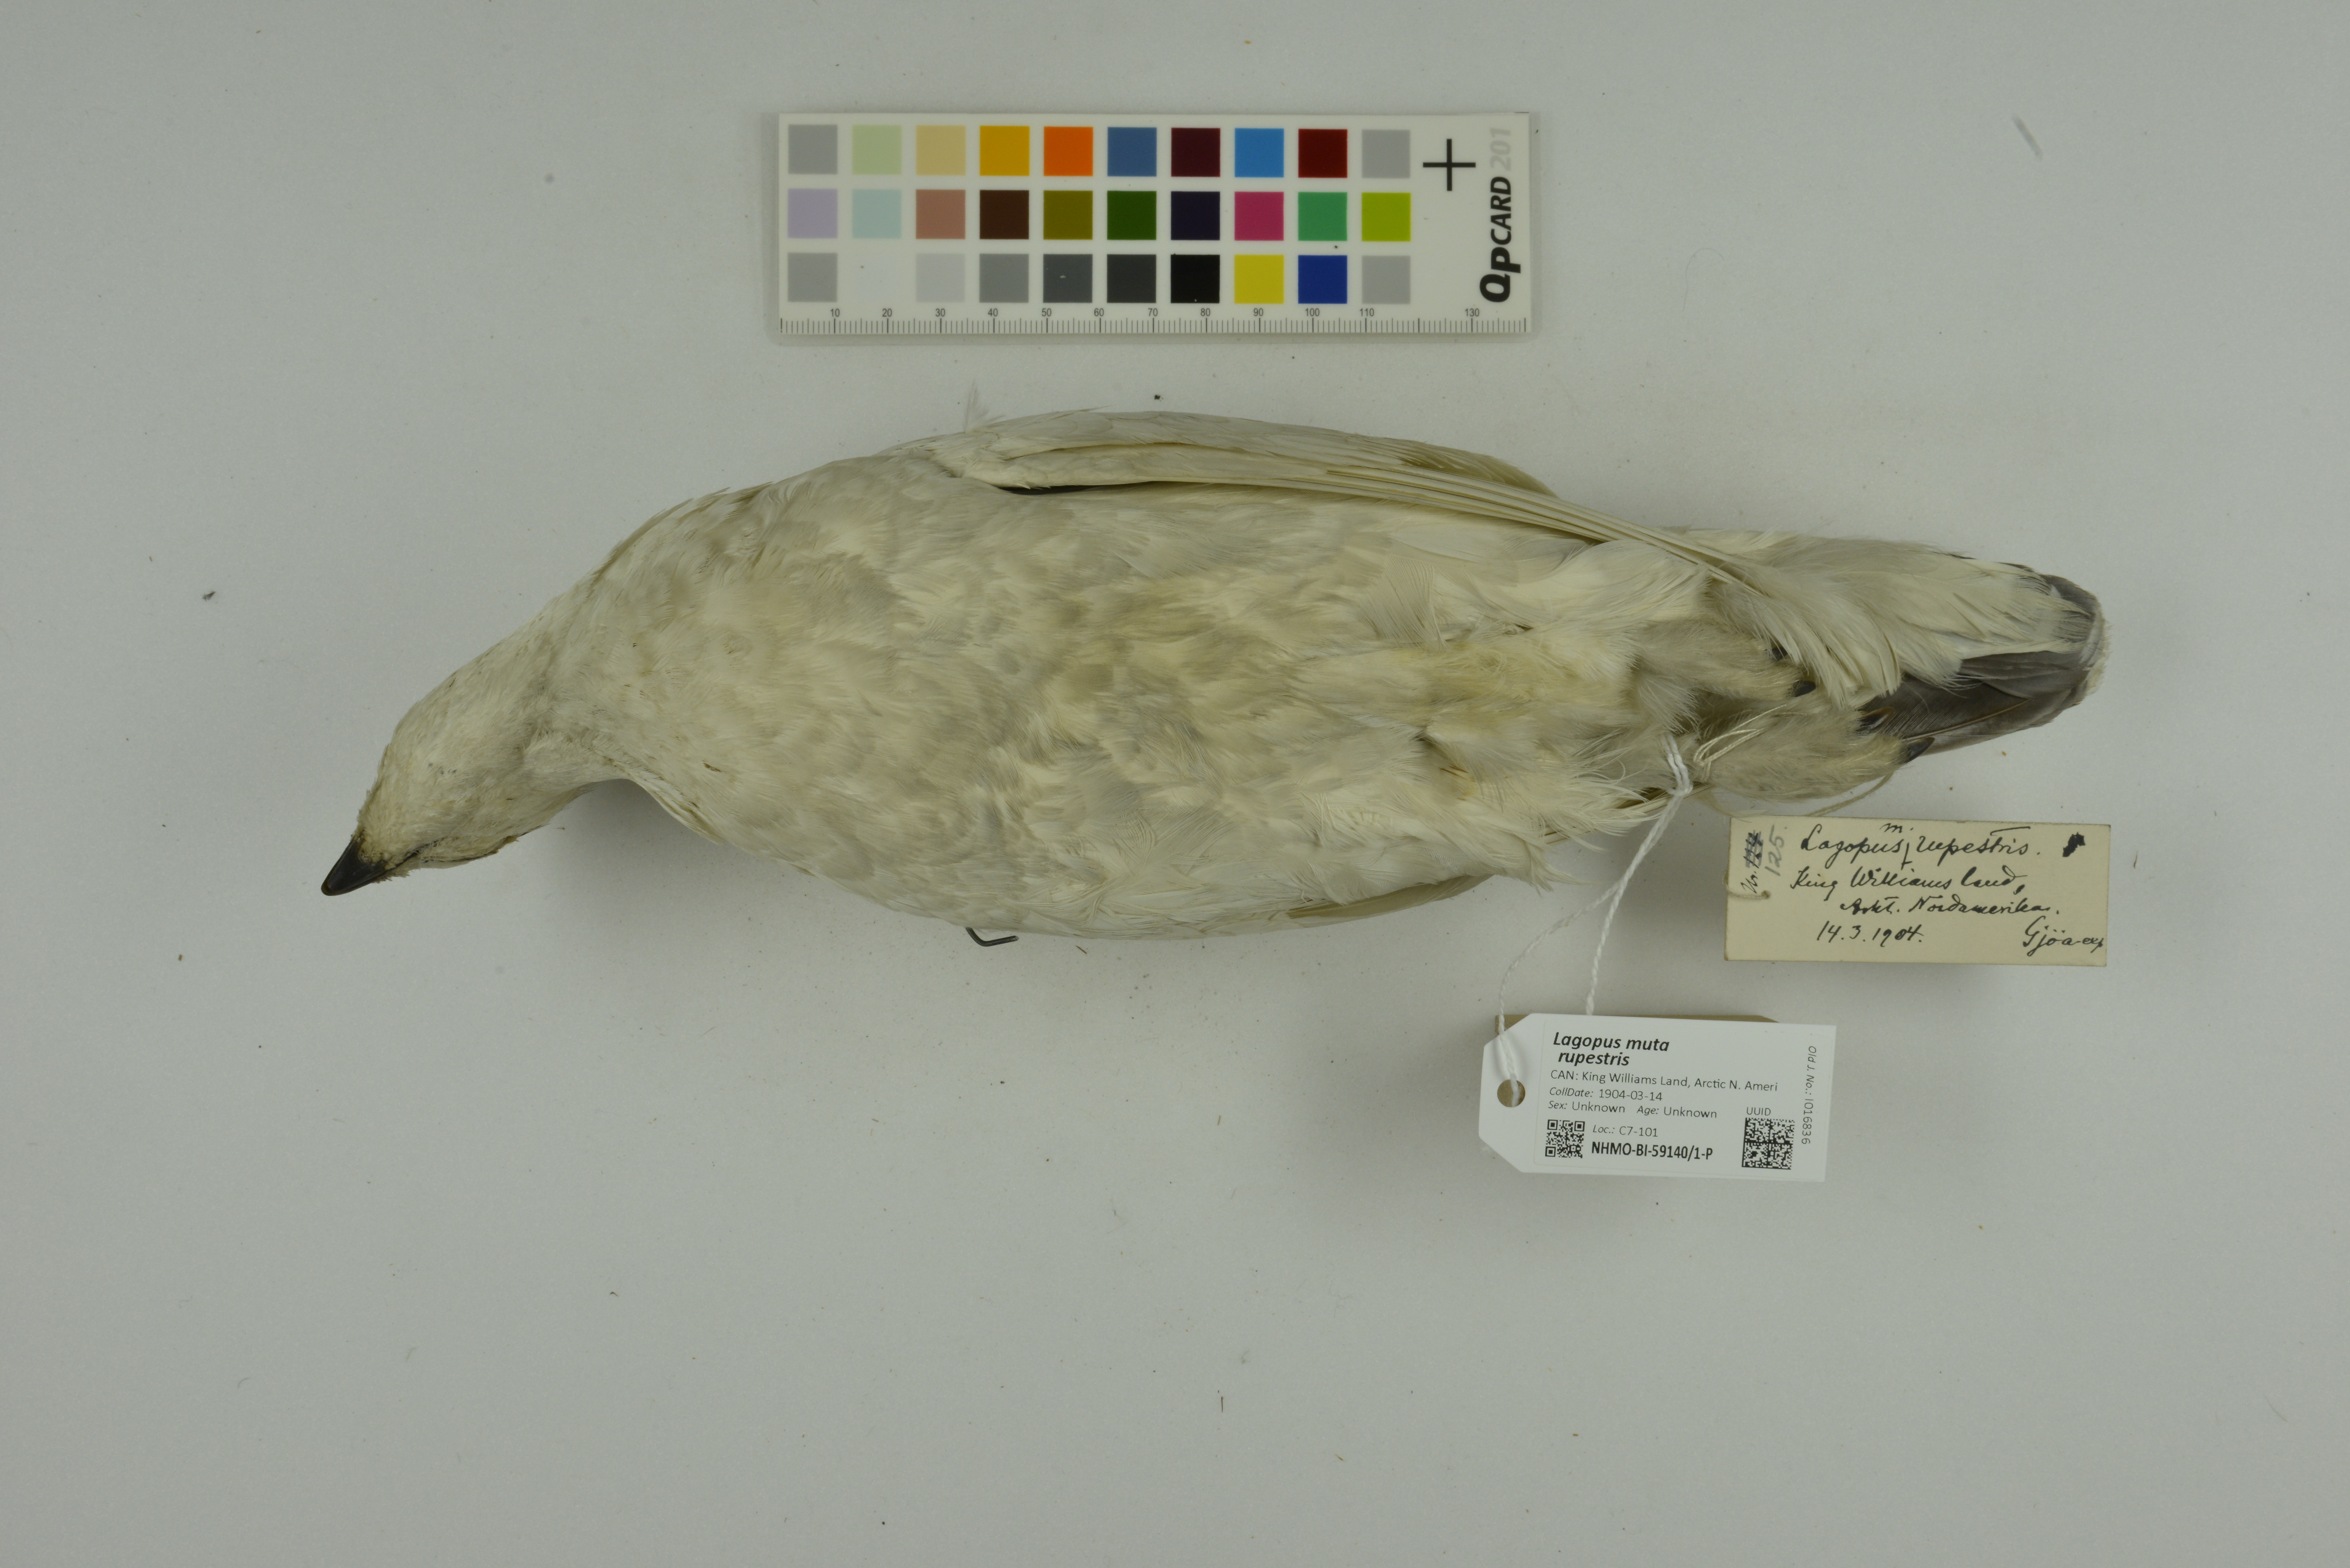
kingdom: Animalia
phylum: Chordata
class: Aves
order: Galliformes
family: Phasianidae
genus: Lagopus
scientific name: Lagopus muta
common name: Rock ptarmigan
